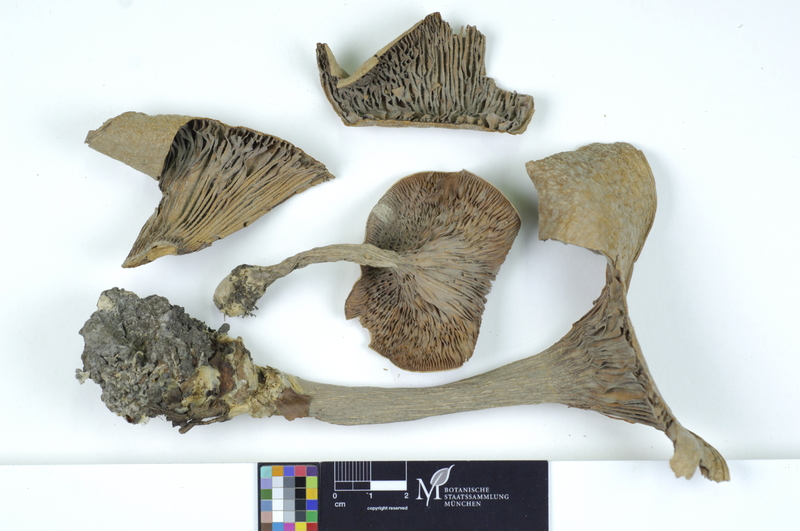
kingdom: Fungi
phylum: Basidiomycota
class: Agaricomycetes
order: Agaricales
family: Tricholomataceae
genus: Infundibulicybe
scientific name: Infundibulicybe geotropa
